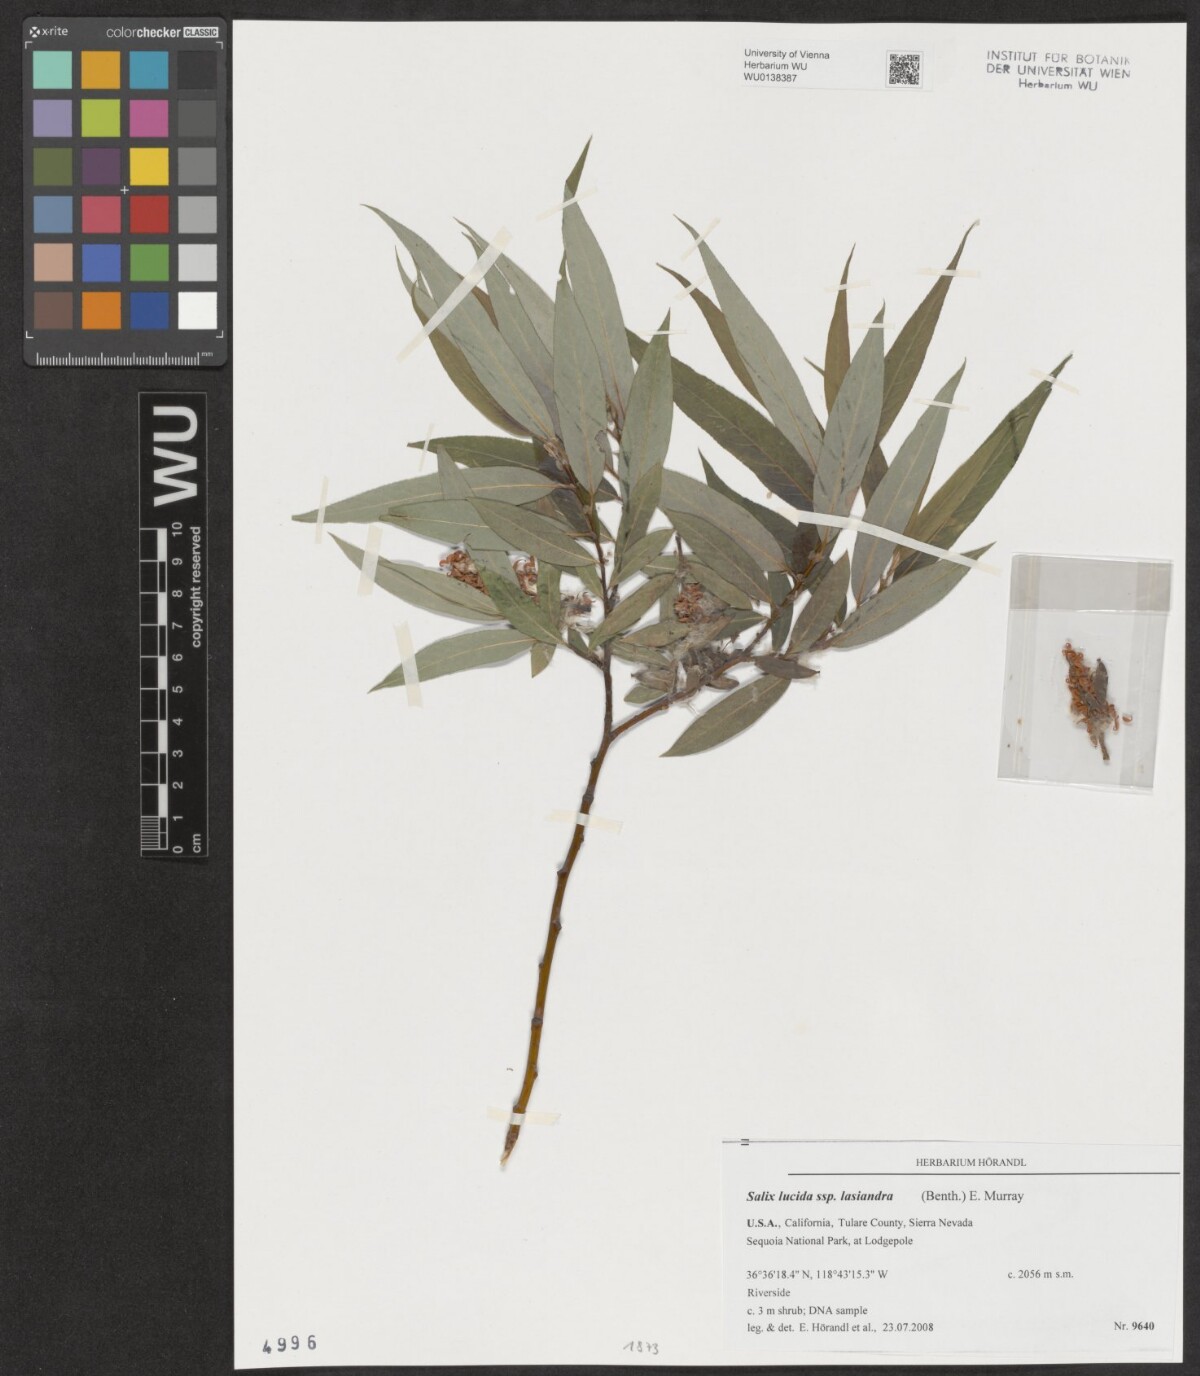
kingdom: Plantae
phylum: Tracheophyta
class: Magnoliopsida
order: Malpighiales
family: Salicaceae
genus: Salix
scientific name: Salix lucida
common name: Shining willow
